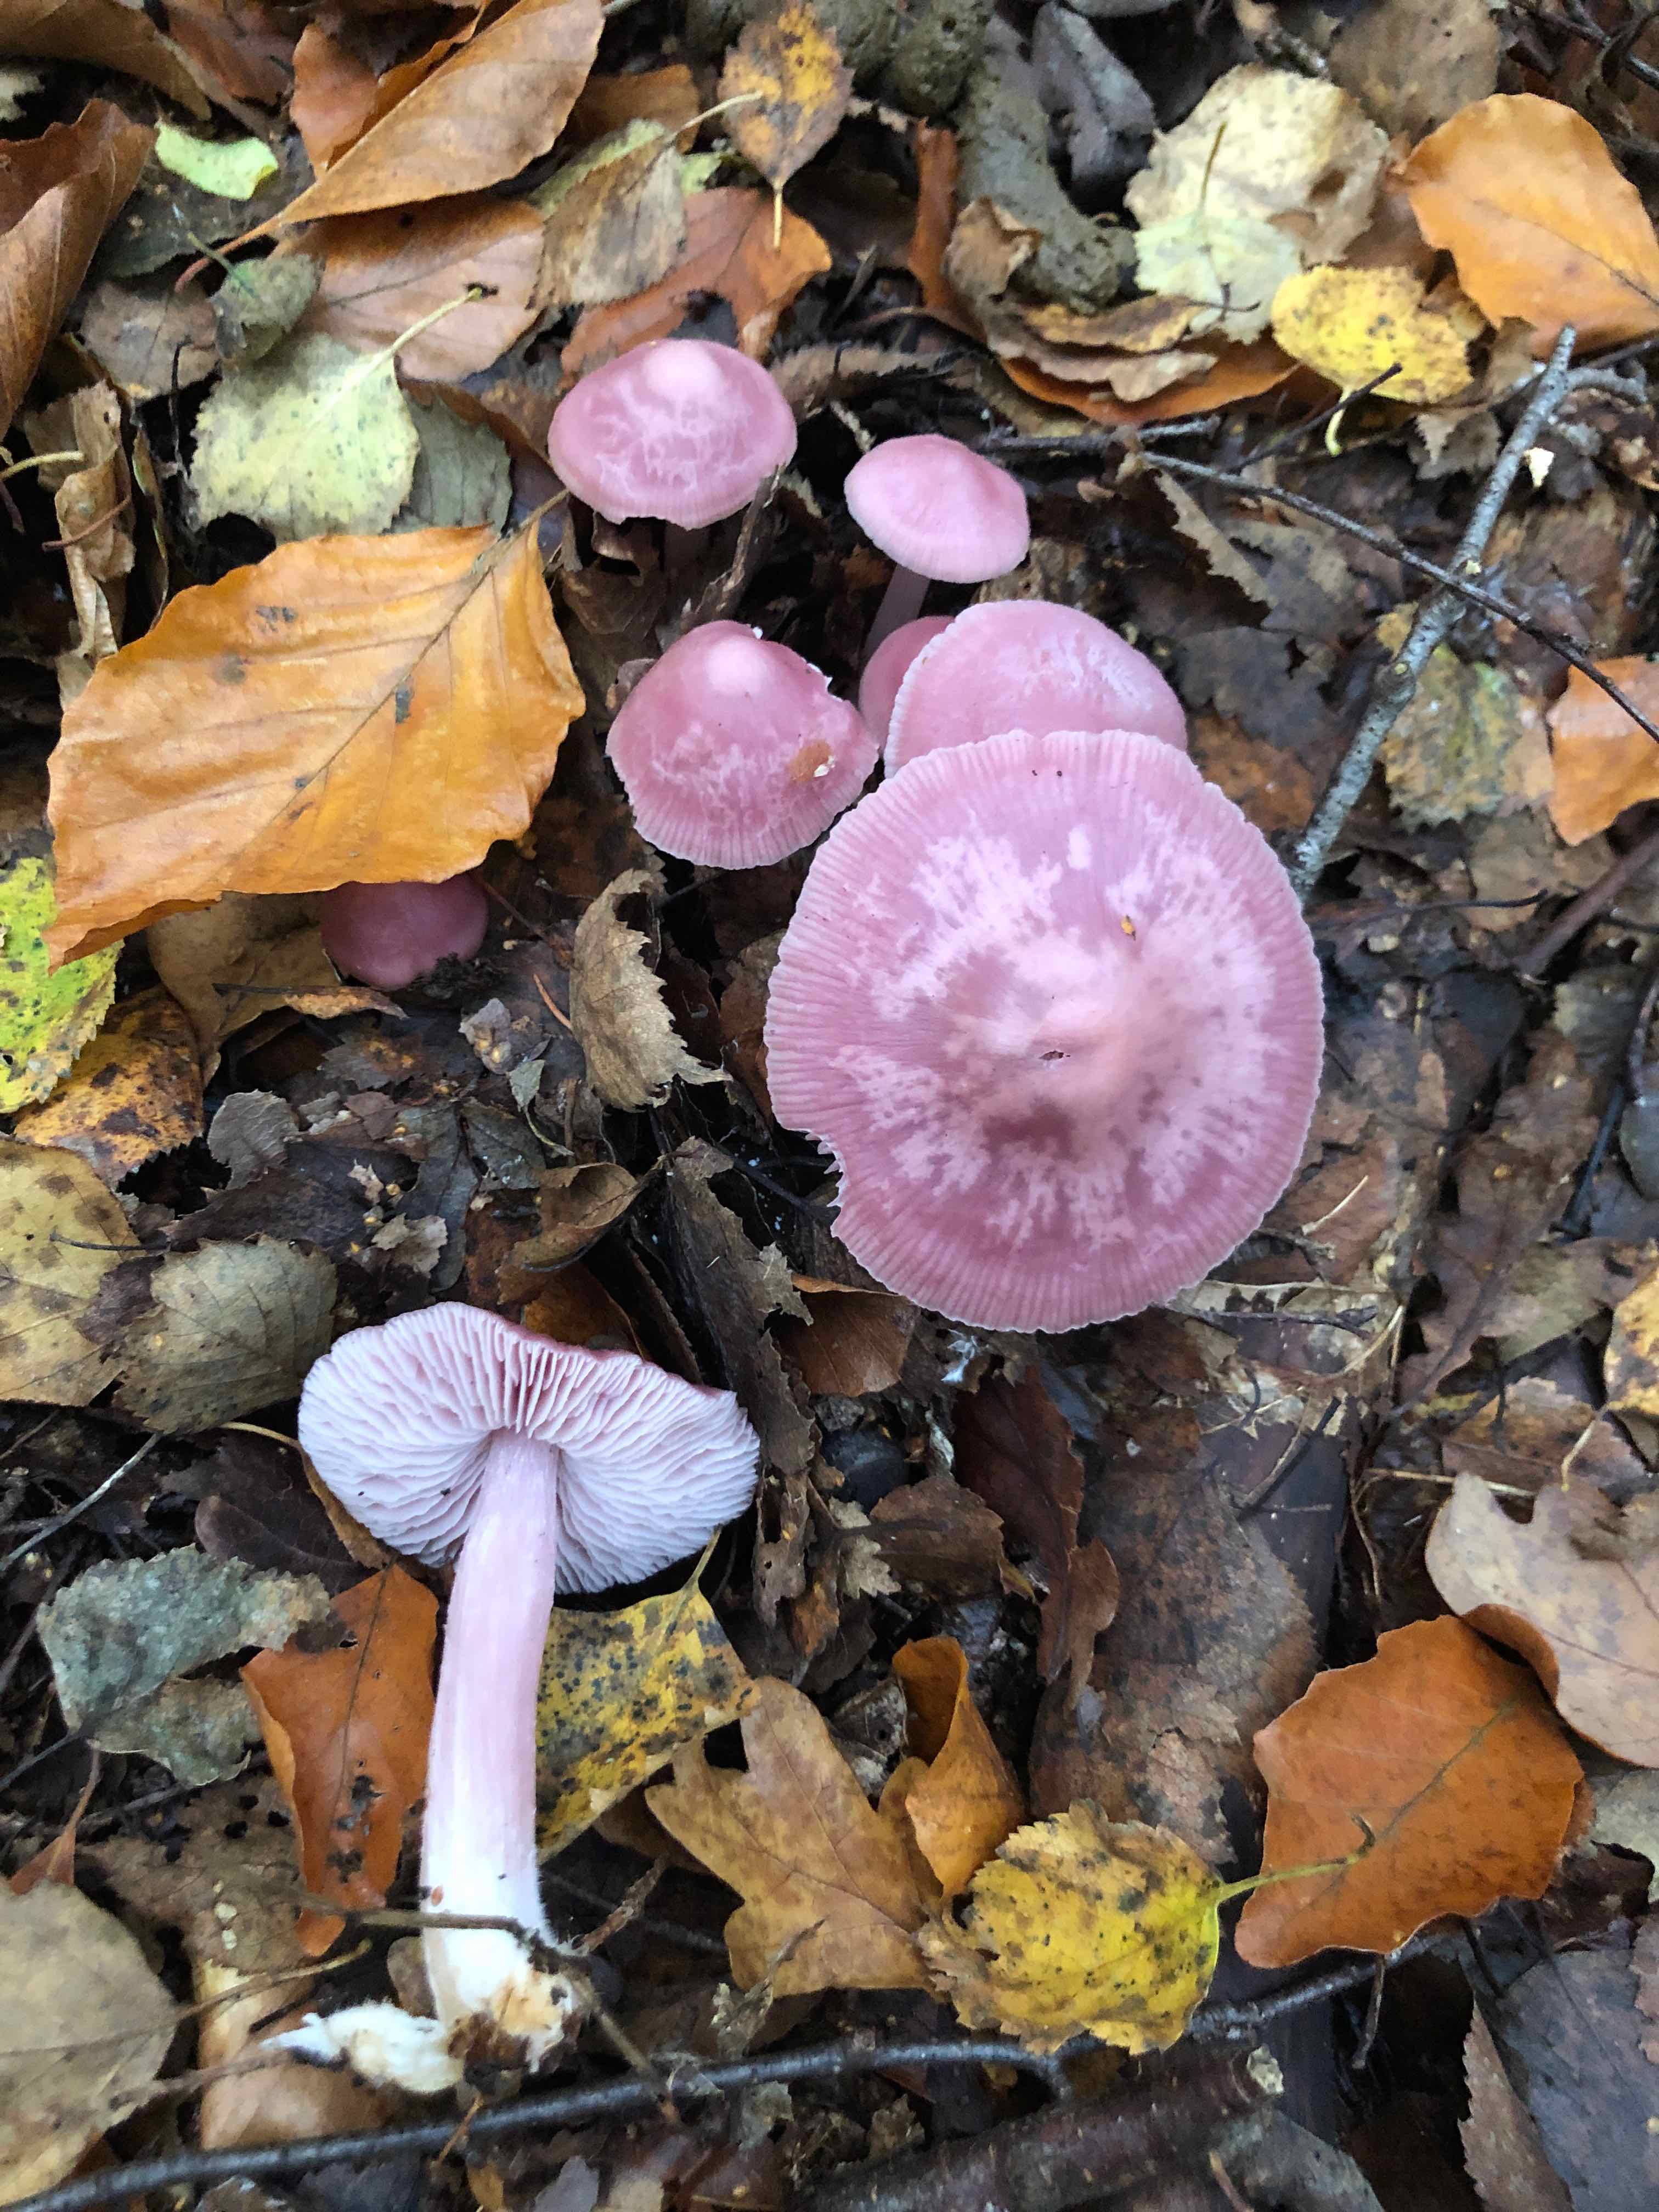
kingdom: Fungi
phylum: Basidiomycota
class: Agaricomycetes
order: Agaricales
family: Mycenaceae
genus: Mycena
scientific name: Mycena rosea
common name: rosa huesvamp
